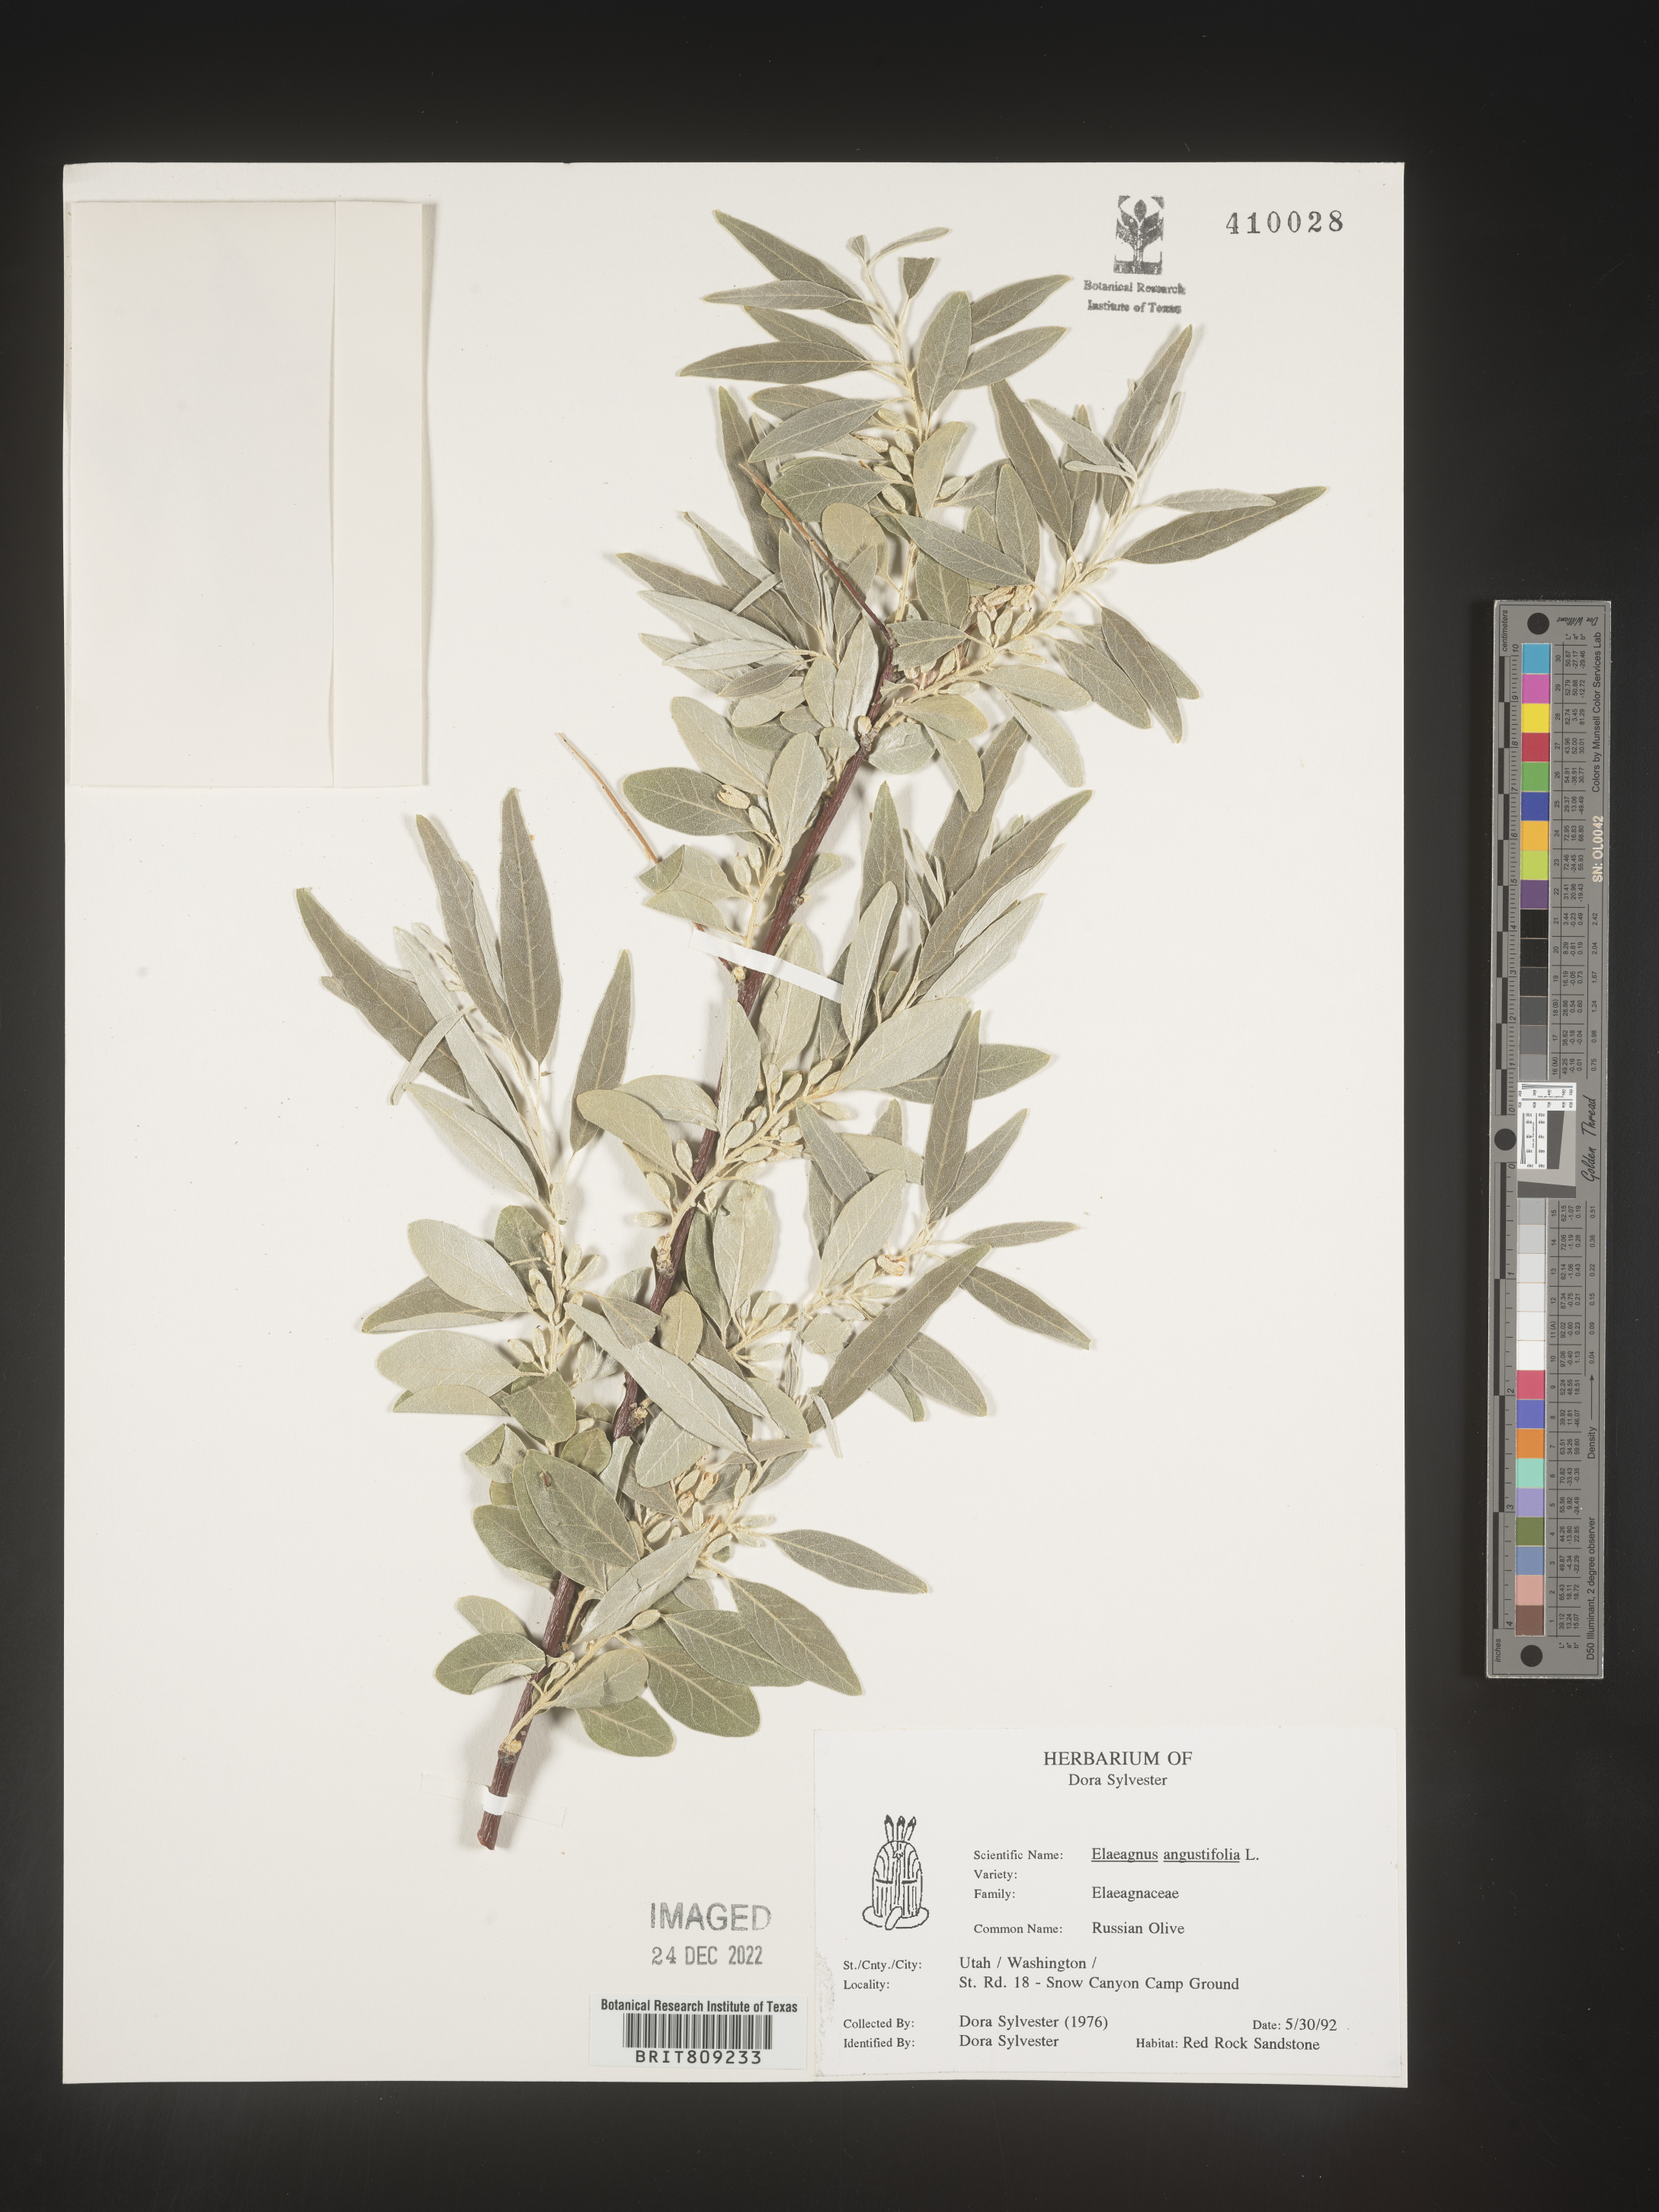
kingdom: Plantae
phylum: Tracheophyta
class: Magnoliopsida
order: Rosales
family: Elaeagnaceae
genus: Elaeagnus
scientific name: Elaeagnus angustifolia
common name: Russian olive
